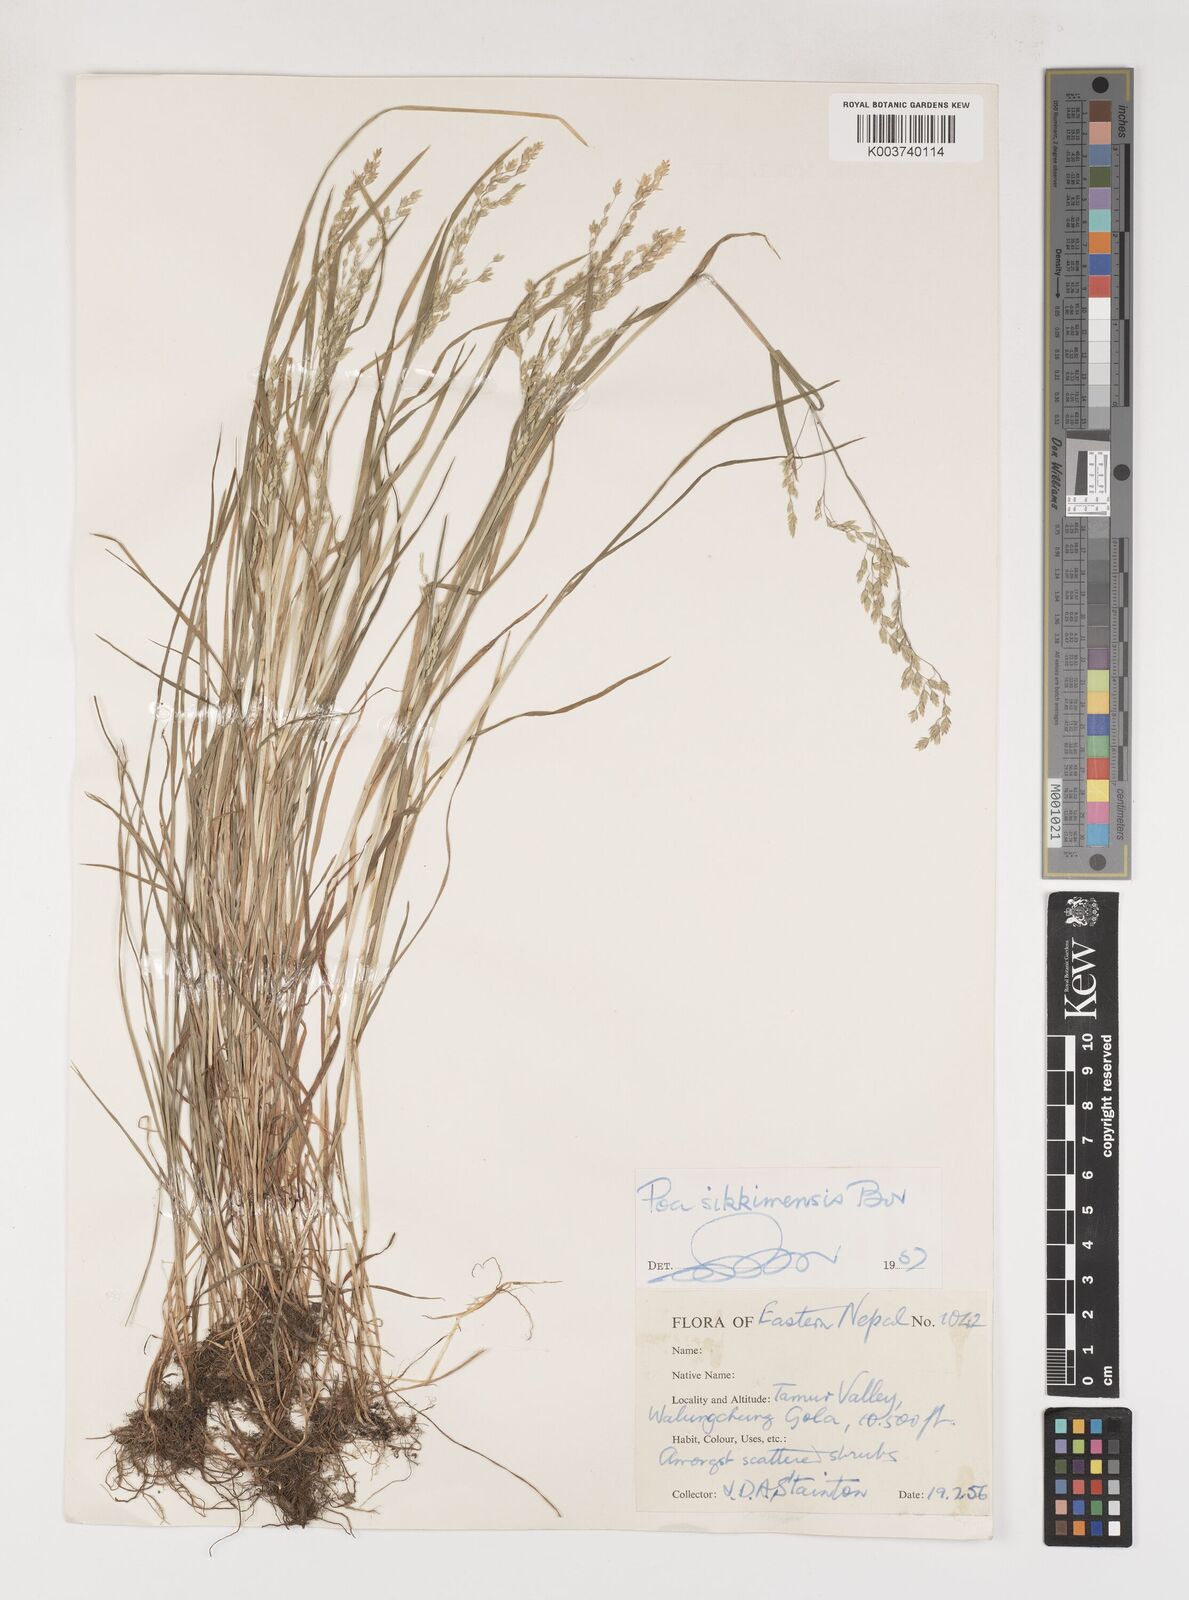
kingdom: Plantae
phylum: Tracheophyta
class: Liliopsida
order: Poales
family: Poaceae
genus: Poa
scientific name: Poa sikkimensis
